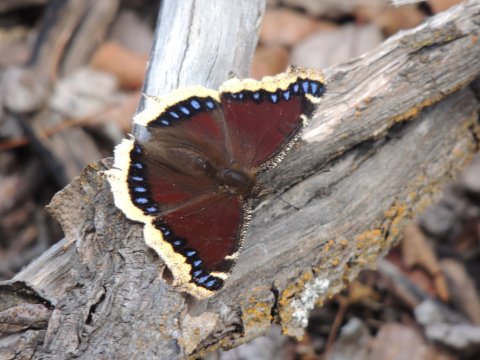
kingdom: Animalia
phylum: Arthropoda
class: Insecta
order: Lepidoptera
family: Nymphalidae
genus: Nymphalis
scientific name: Nymphalis antiopa
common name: Mourning Cloak
